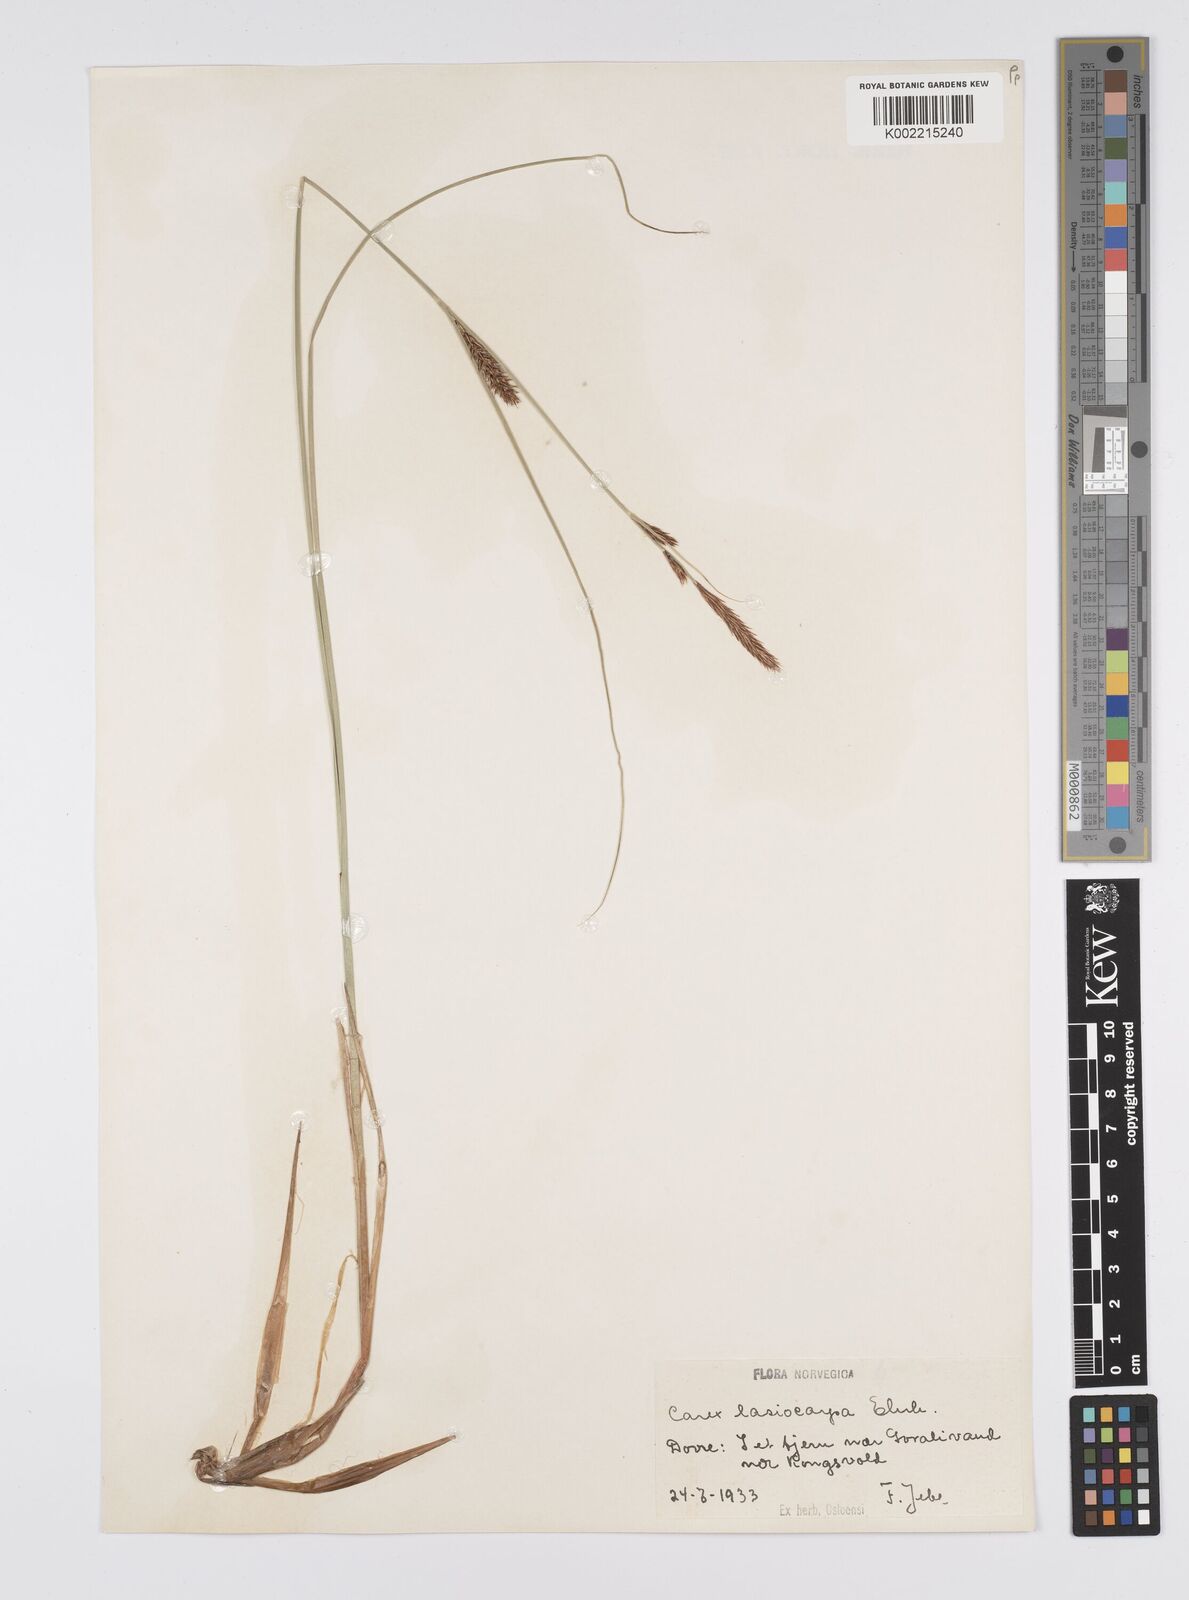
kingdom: Plantae
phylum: Tracheophyta
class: Liliopsida
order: Poales
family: Cyperaceae
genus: Carex
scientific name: Carex lasiocarpa
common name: Slender sedge
